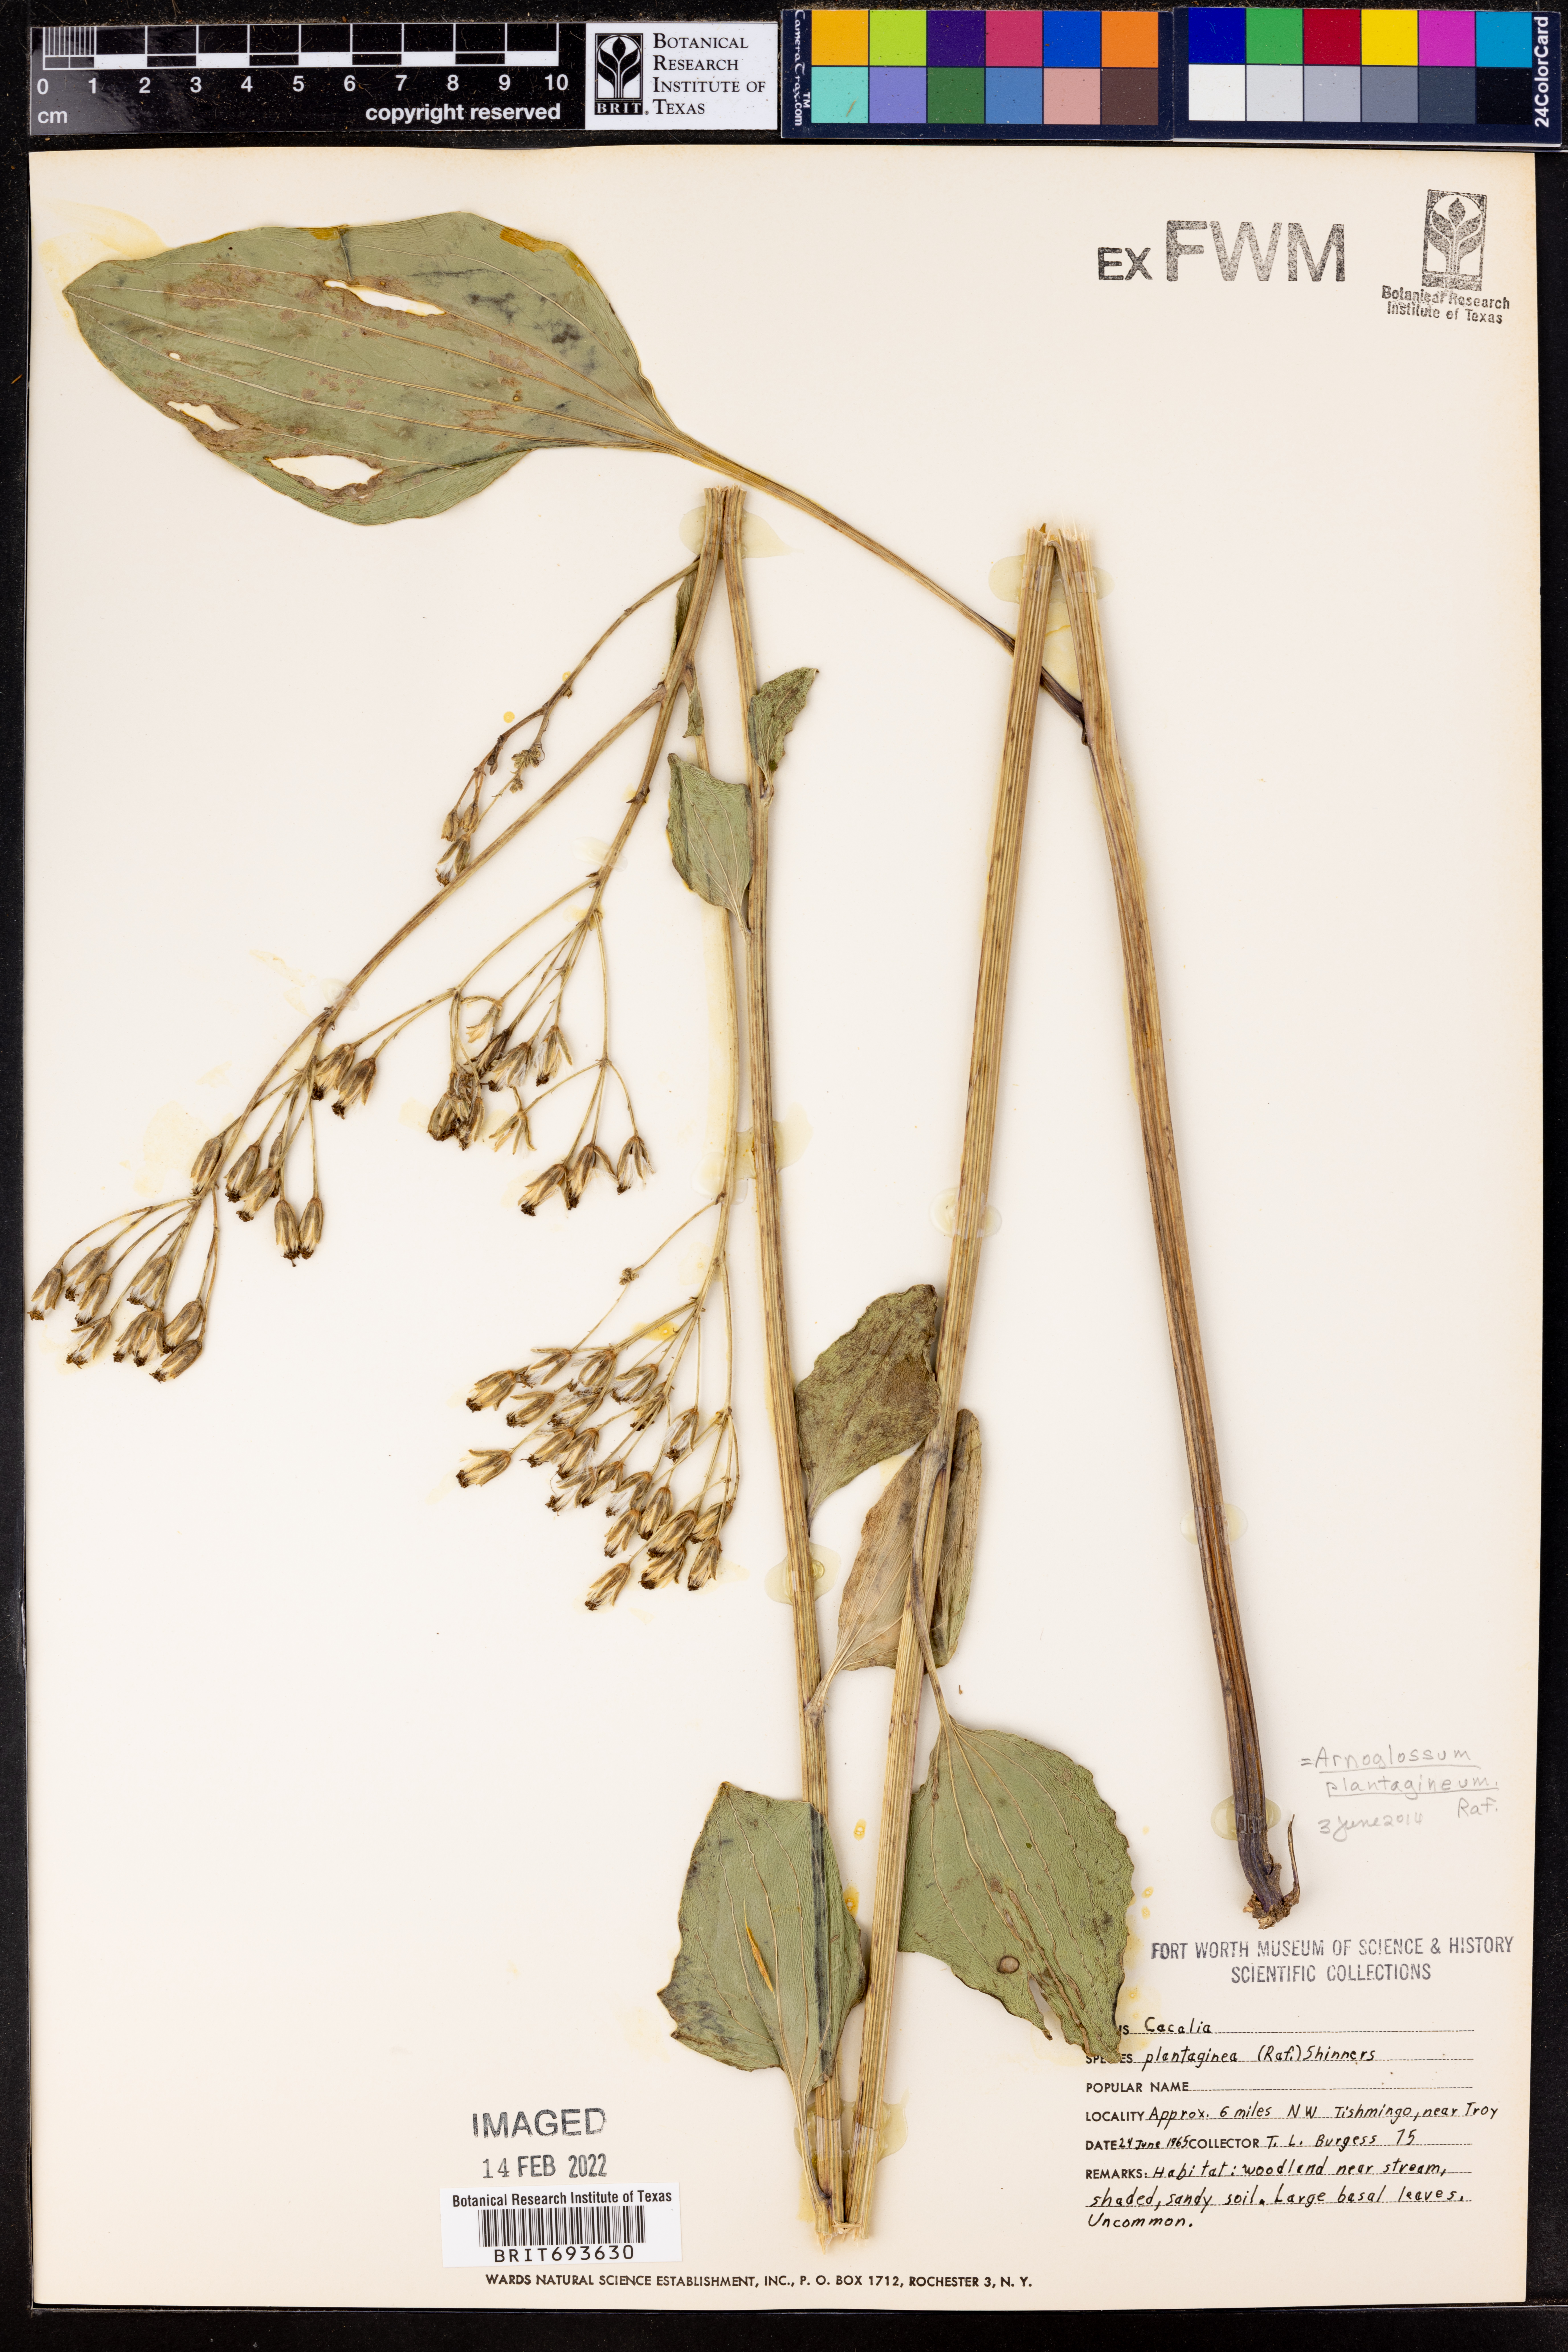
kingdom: Plantae
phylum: Tracheophyta
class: Magnoliopsida
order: Asterales
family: Asteraceae
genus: Arnoglossum
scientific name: Arnoglossum plantagineum
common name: Groove-stemmed indian-plantain
